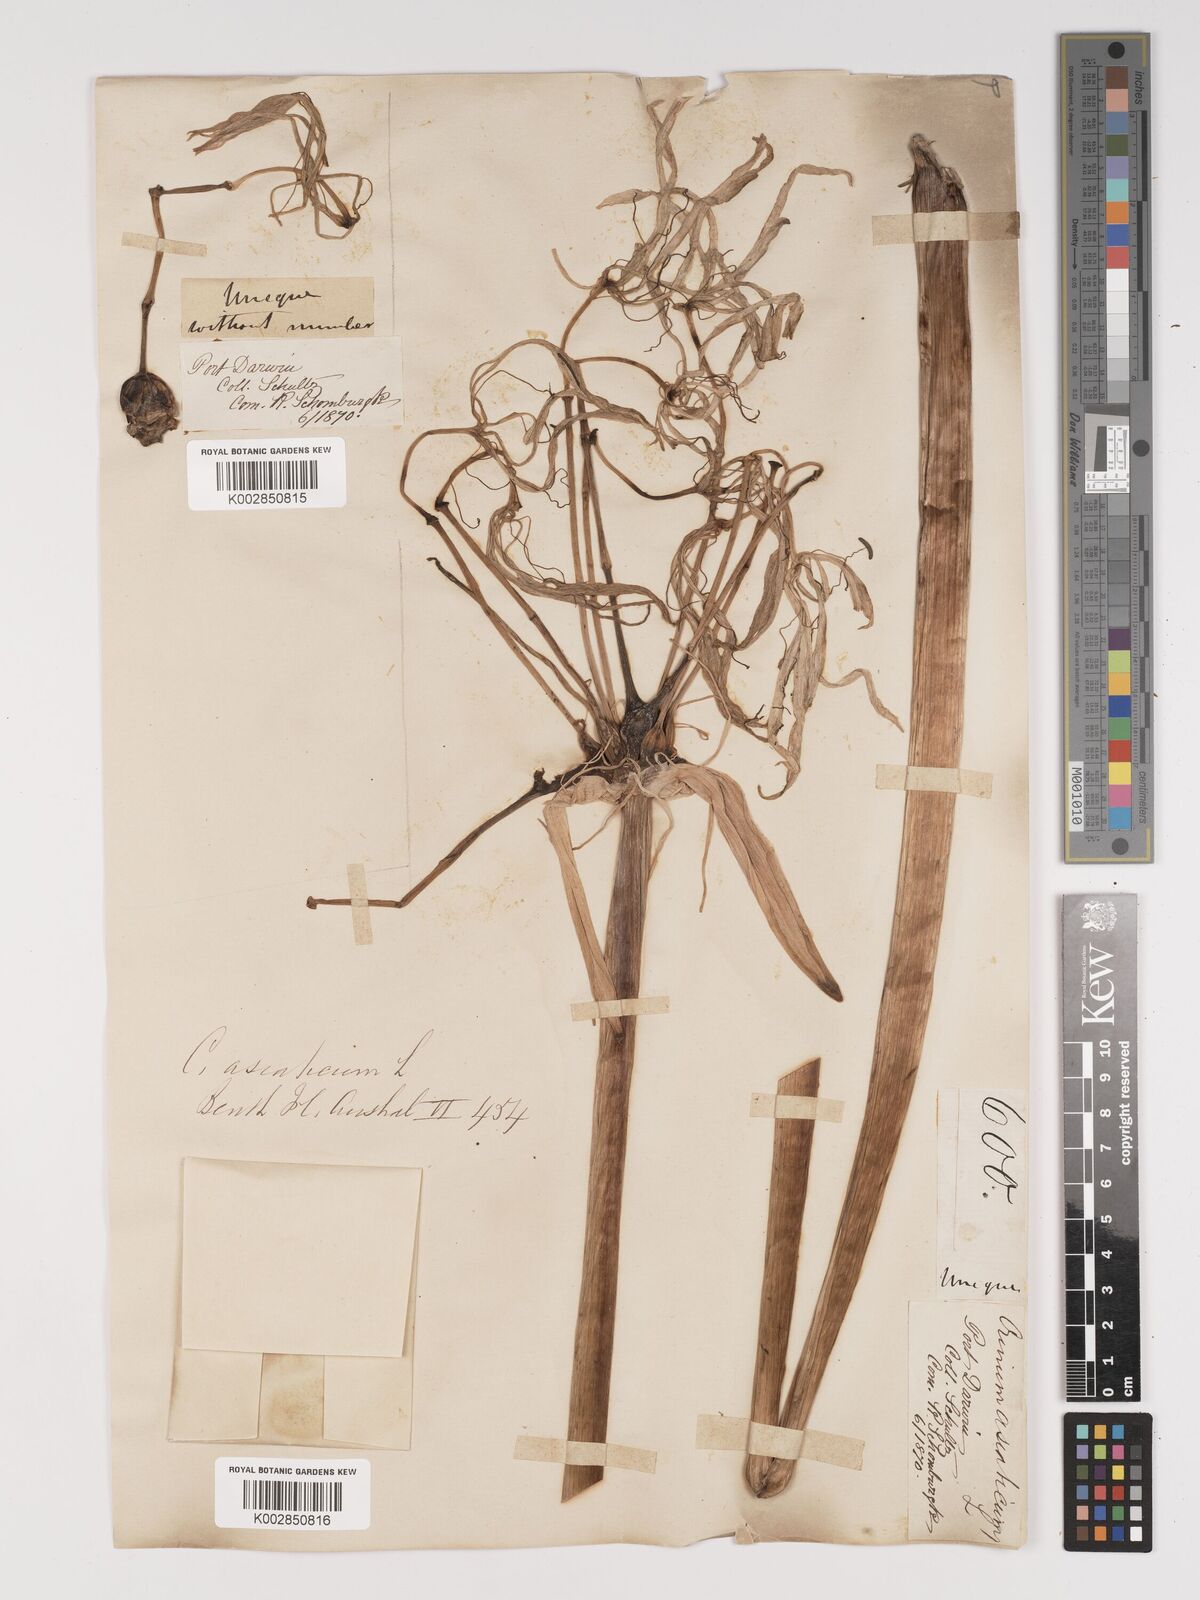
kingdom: Plantae
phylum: Tracheophyta
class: Liliopsida
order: Asparagales
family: Amaryllidaceae
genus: Crinum
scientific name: Crinum arenarium
